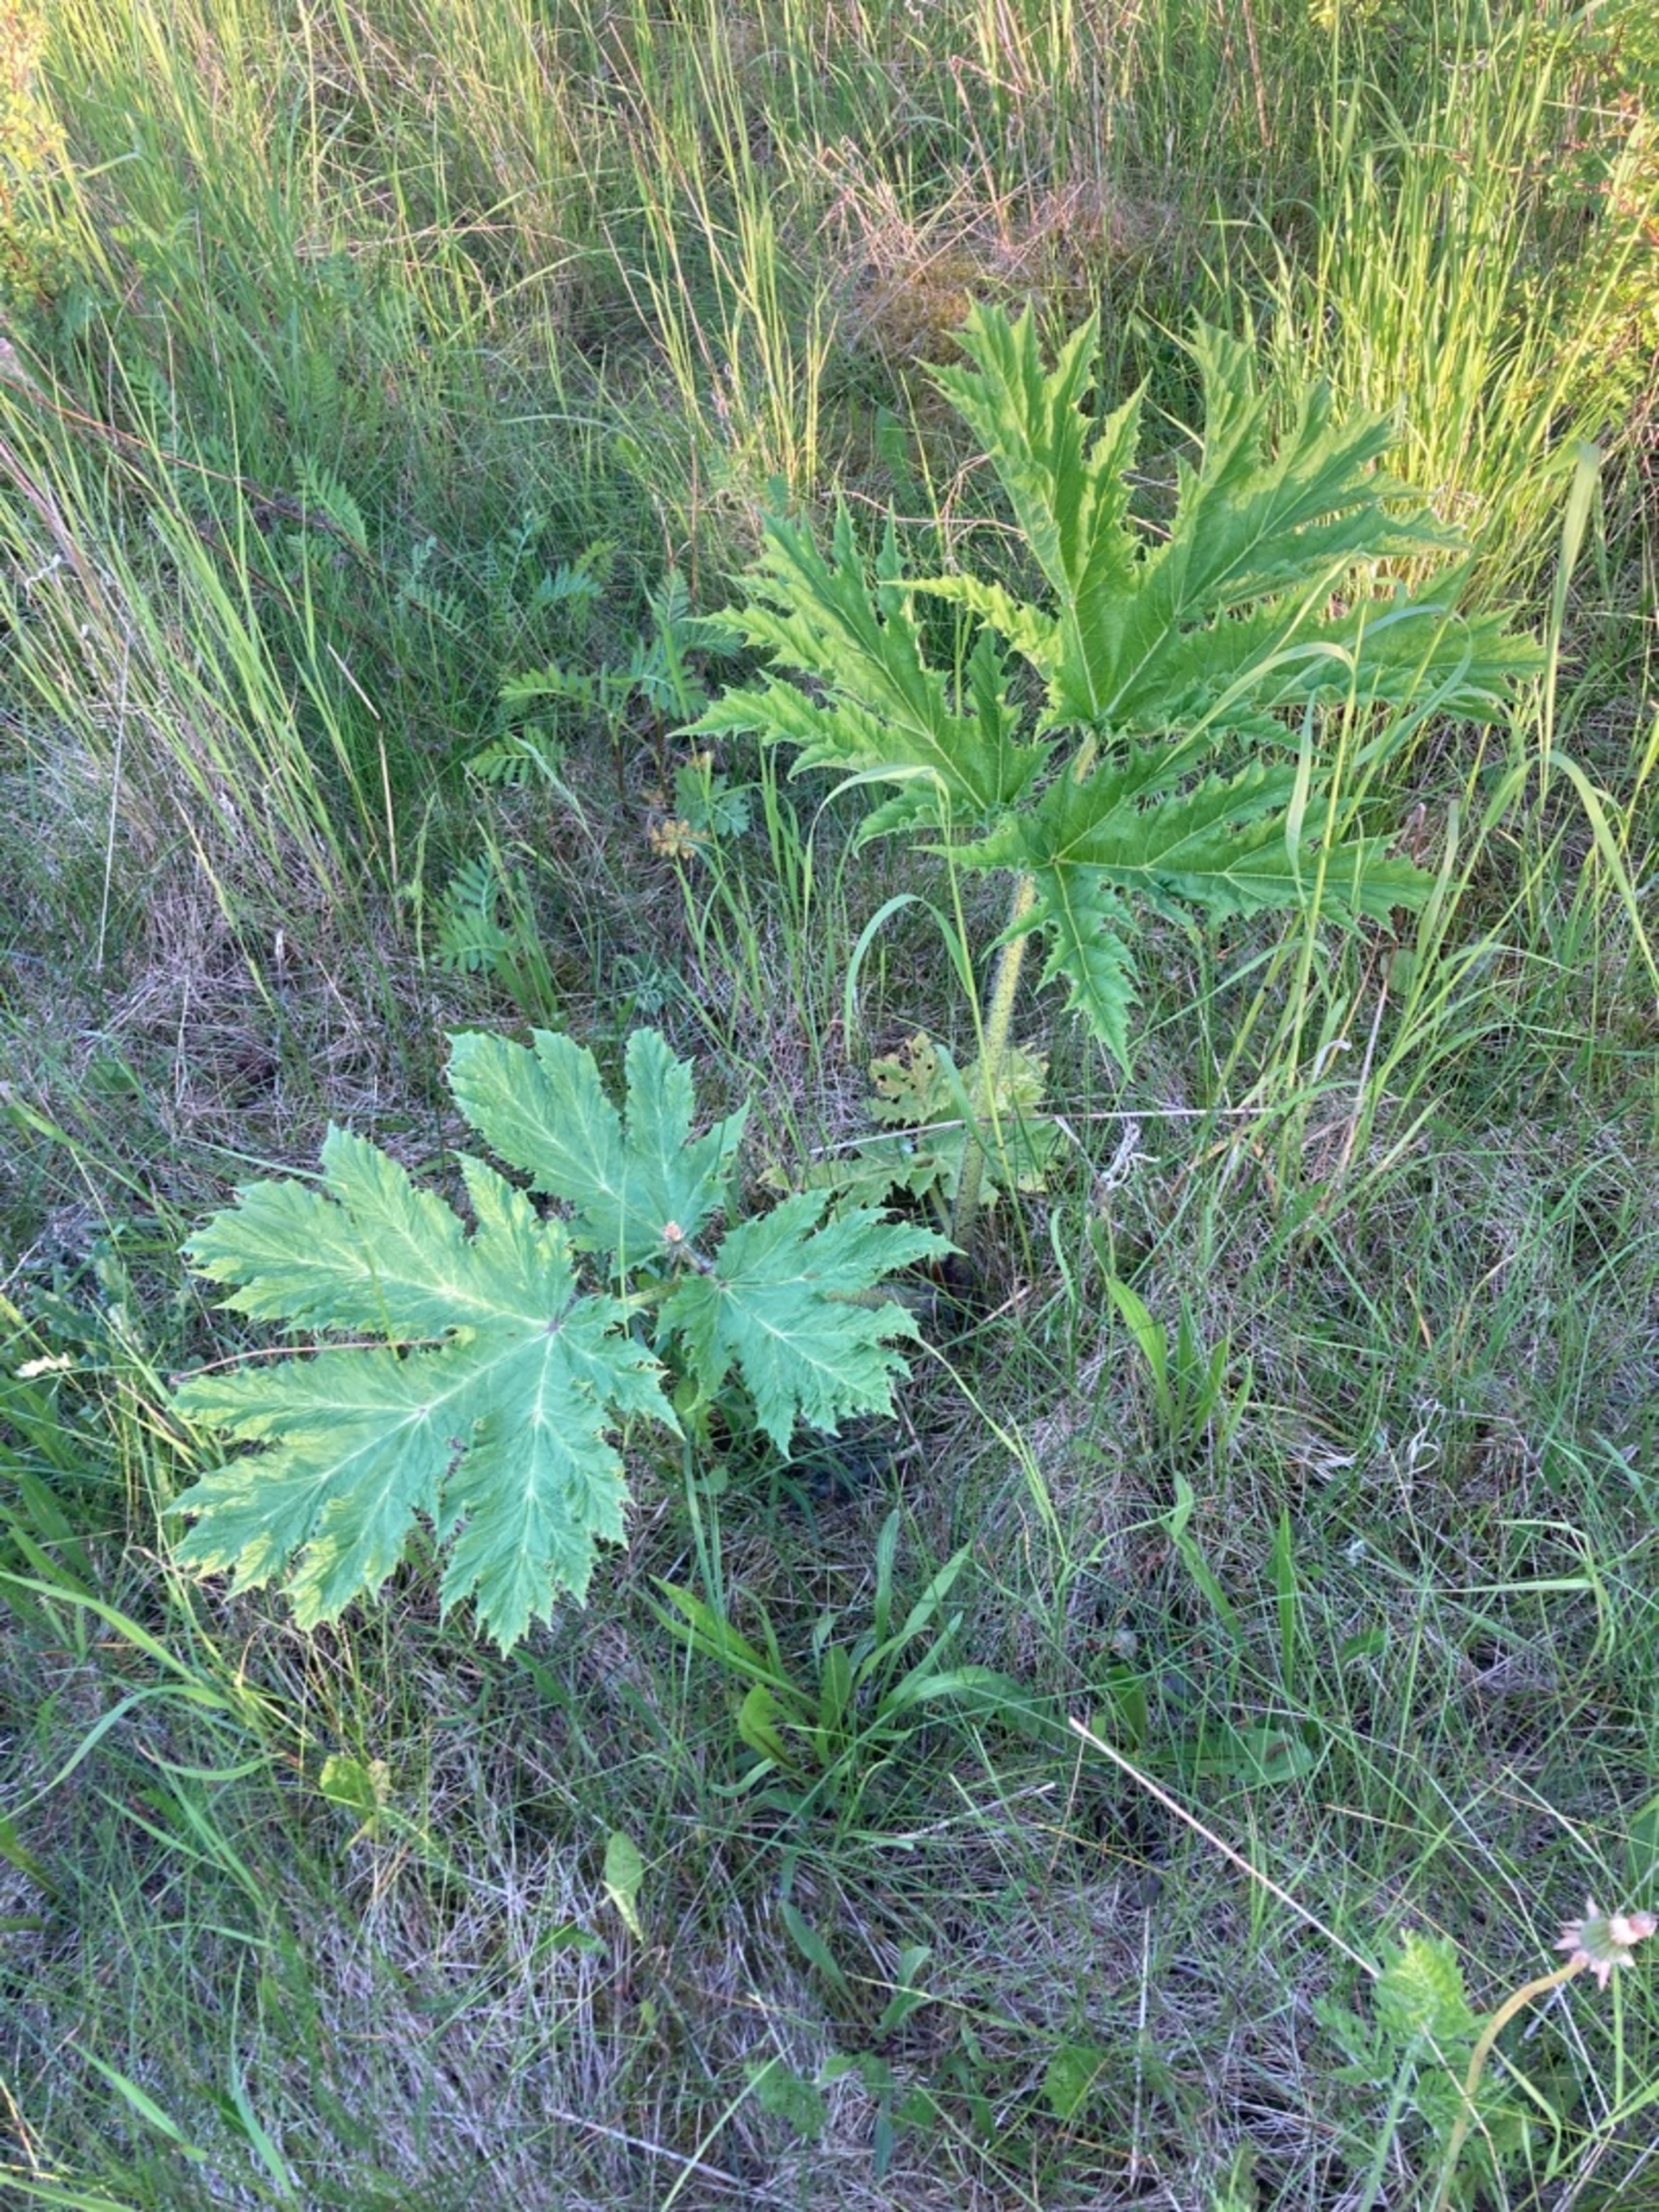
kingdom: Plantae
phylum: Tracheophyta
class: Magnoliopsida
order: Apiales
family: Apiaceae
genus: Heracleum
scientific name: Heracleum mantegazzianum
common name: Kæmpe-bjørneklo
